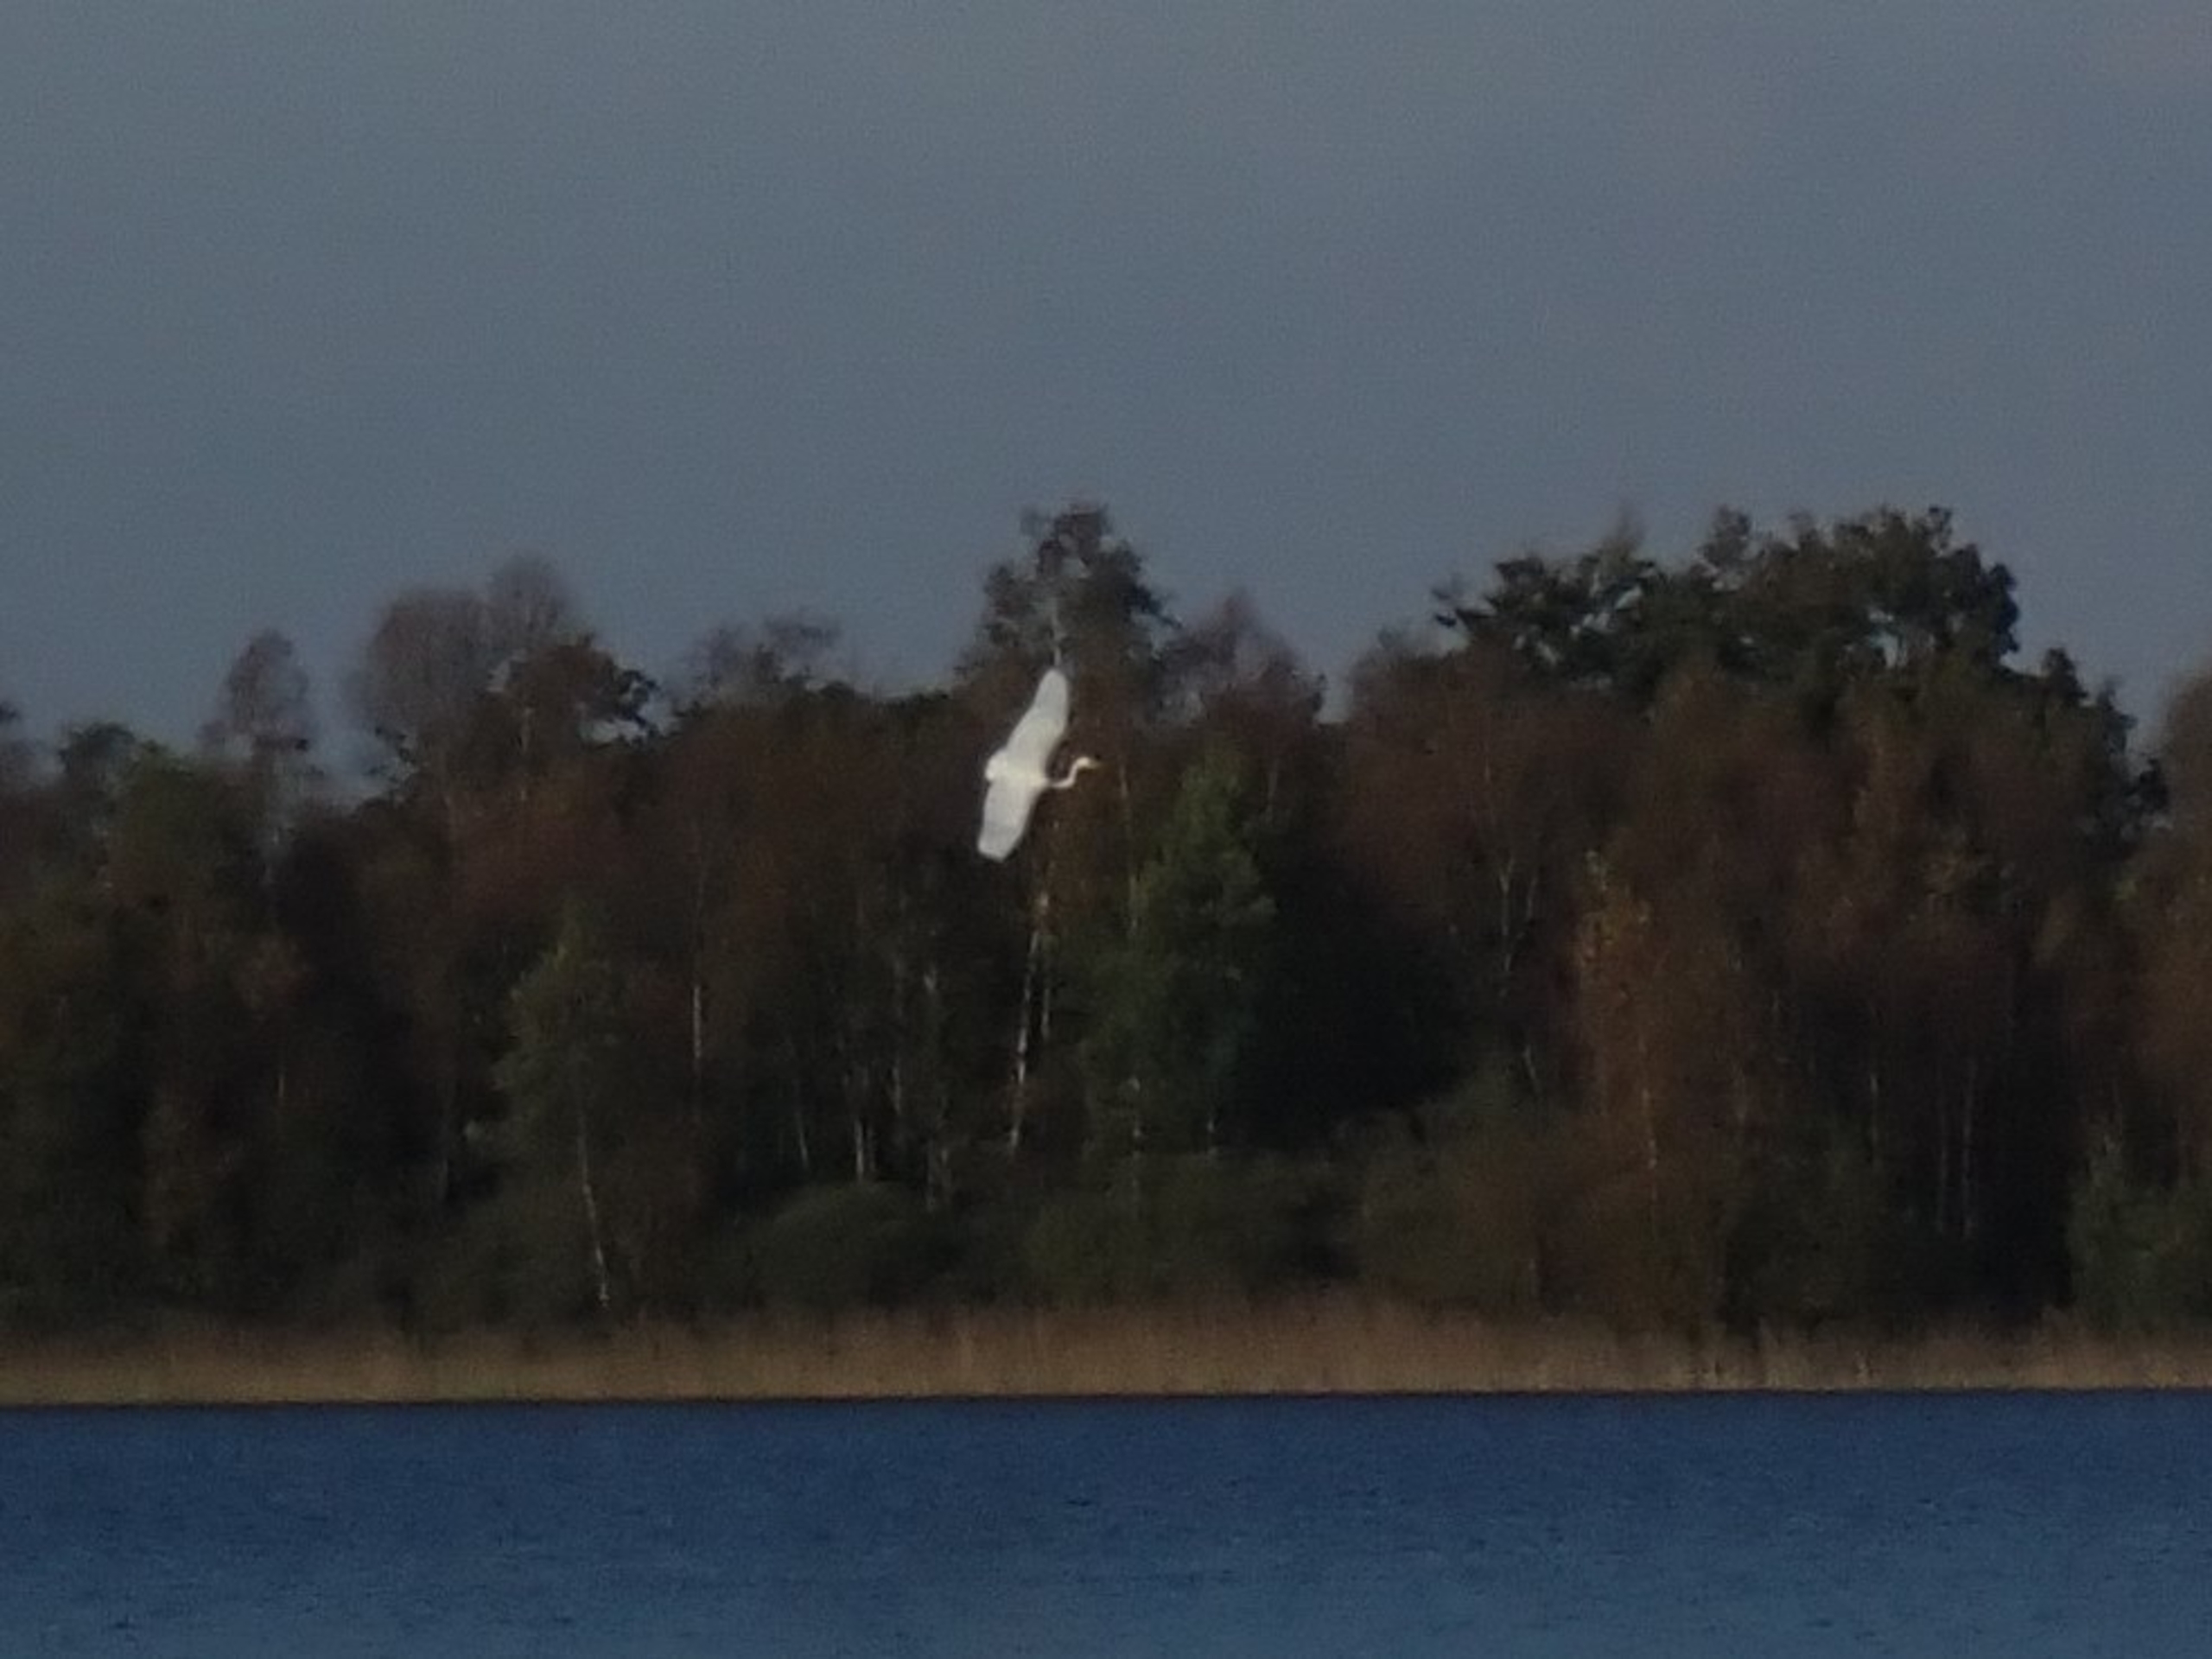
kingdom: Animalia
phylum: Chordata
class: Aves
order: Pelecaniformes
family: Ardeidae
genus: Ardea
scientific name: Ardea alba
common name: Sølvhejre
